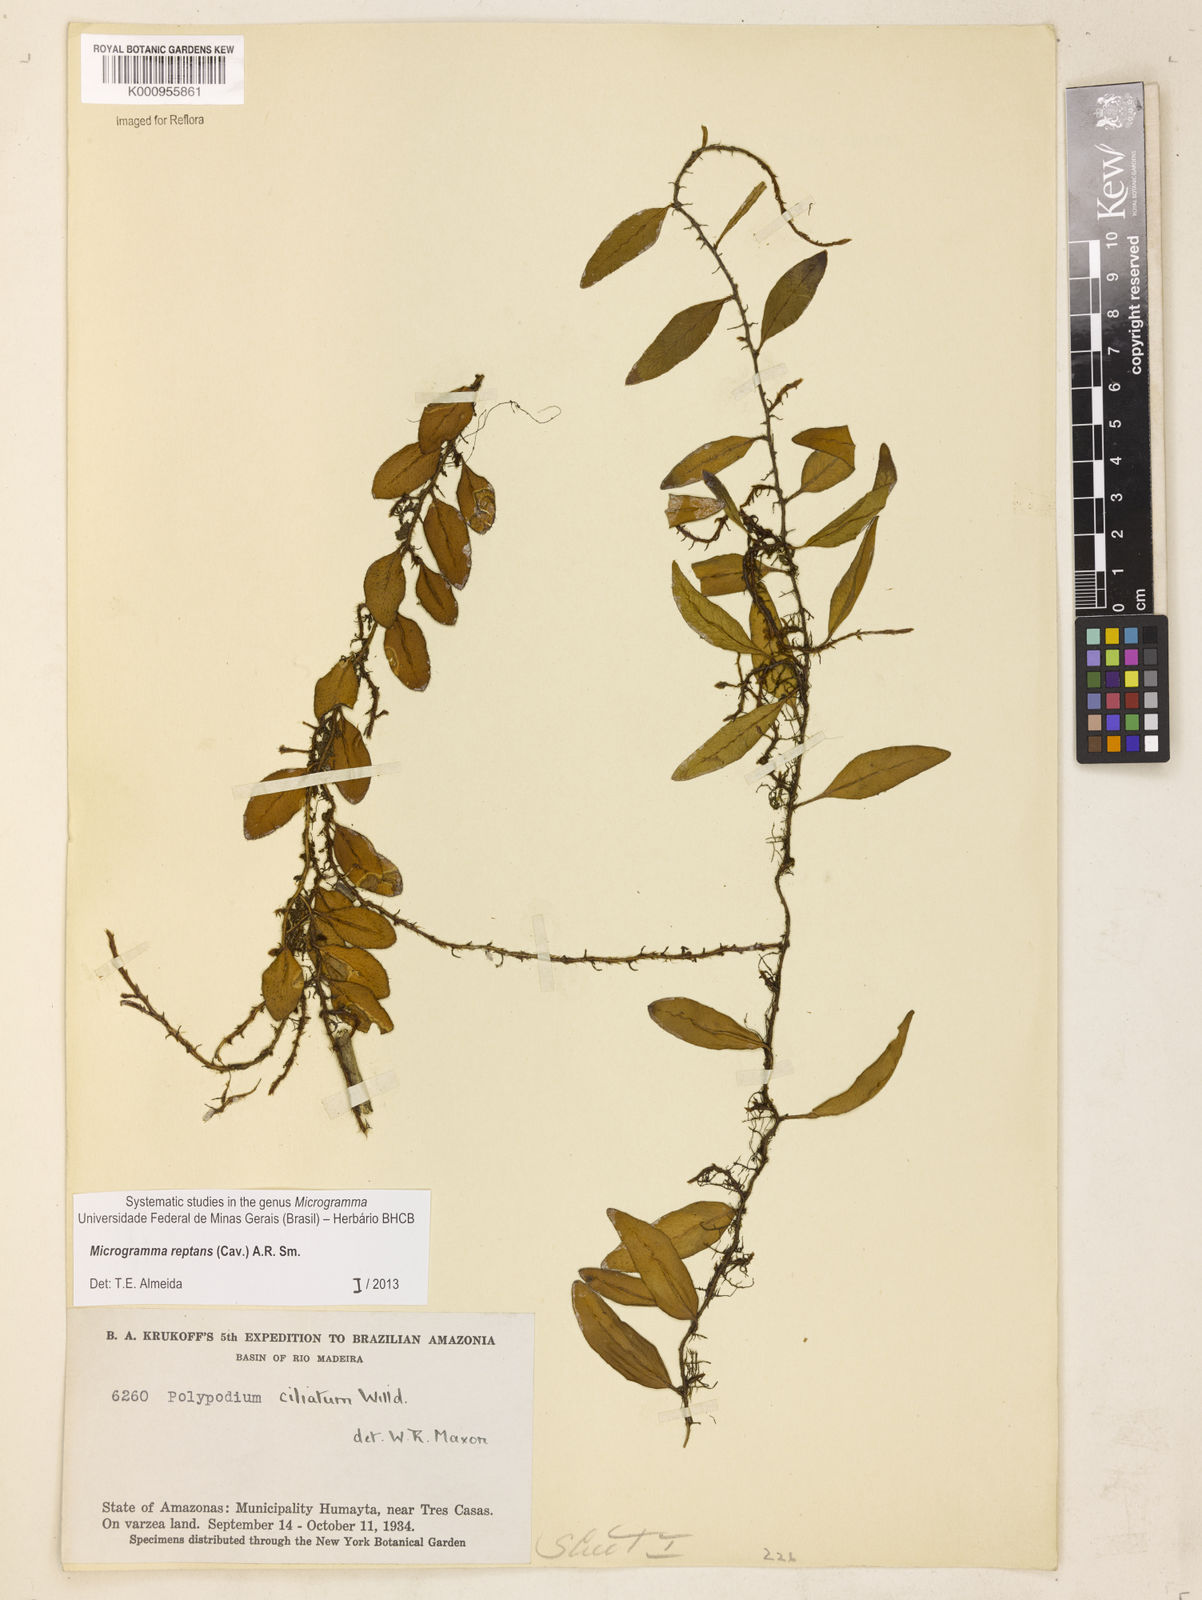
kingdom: Plantae
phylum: Tracheophyta
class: Polypodiopsida
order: Polypodiales
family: Polypodiaceae
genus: Microgramma
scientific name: Microgramma reptans
